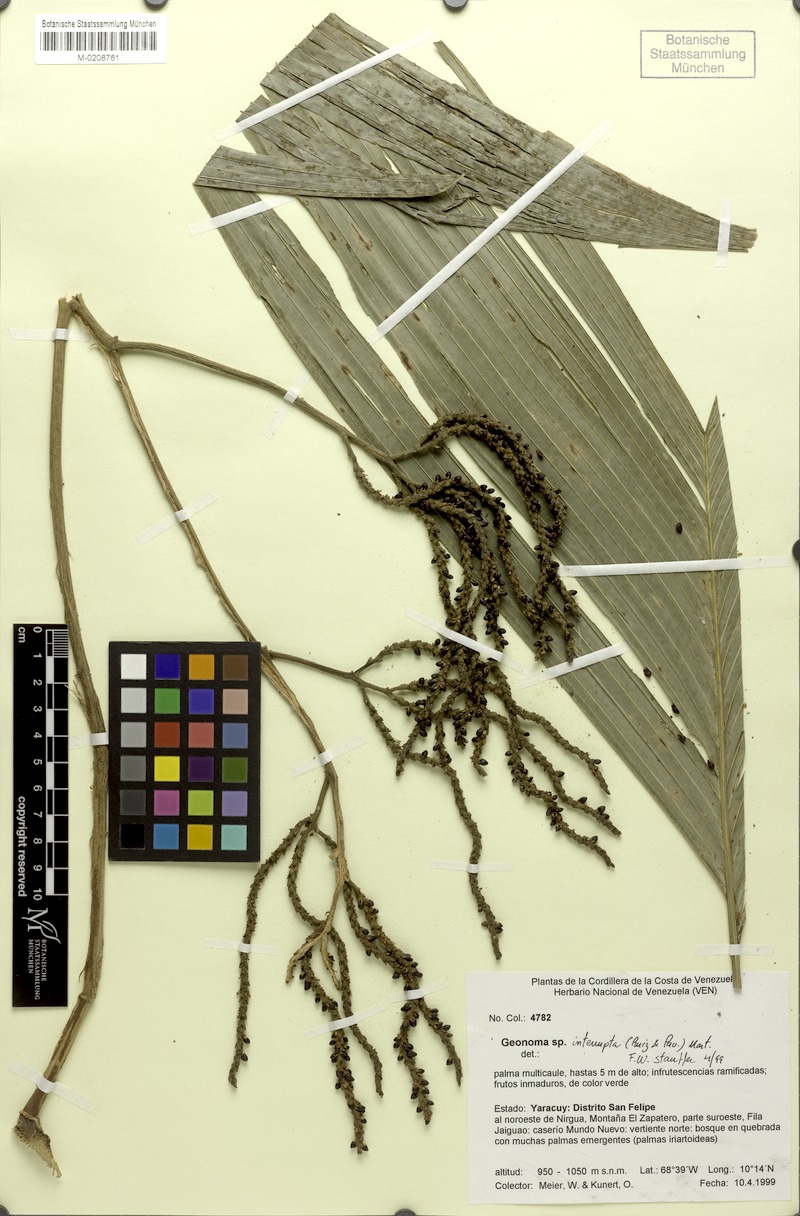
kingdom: Plantae
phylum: Tracheophyta
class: Liliopsida
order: Arecales
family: Arecaceae
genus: Geonoma
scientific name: Geonoma interrupta
